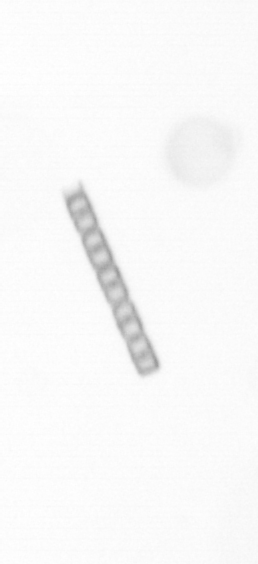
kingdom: Chromista
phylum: Ochrophyta
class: Bacillariophyceae
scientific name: Bacillariophyceae
